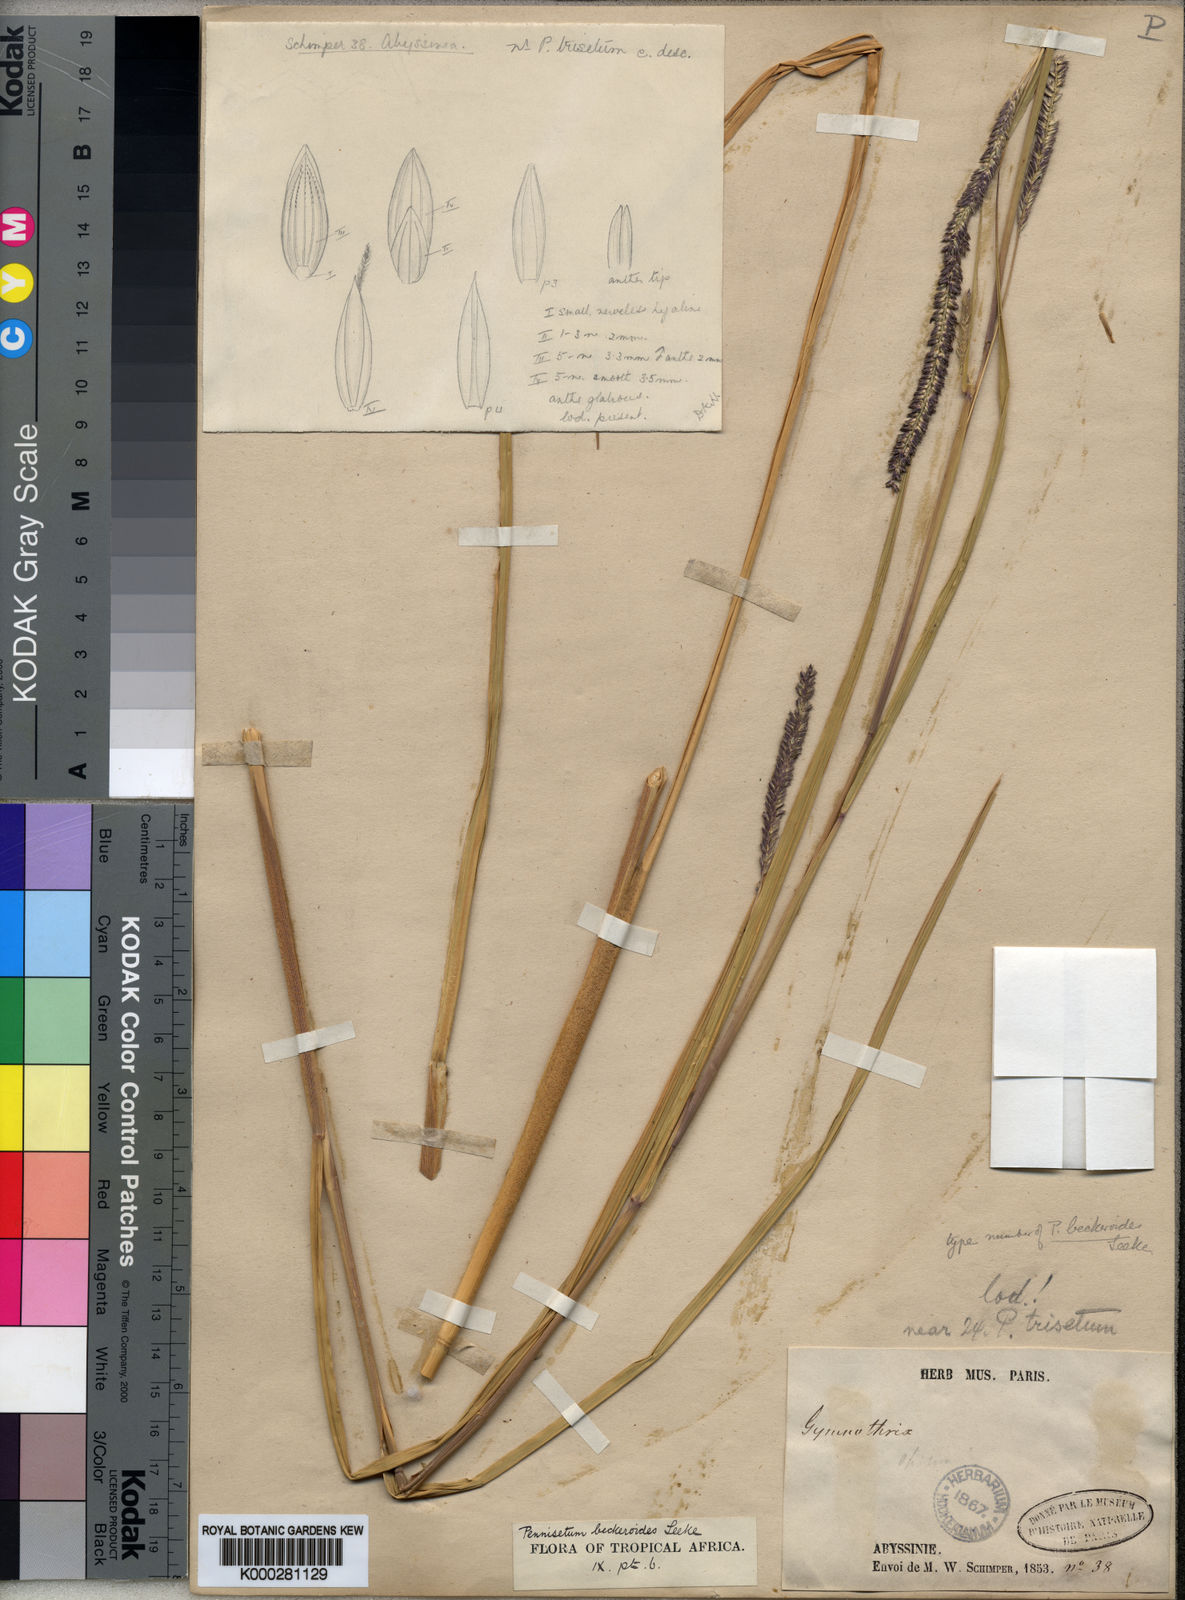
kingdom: Plantae
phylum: Tracheophyta
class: Liliopsida
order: Poales
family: Poaceae
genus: Cenchrus
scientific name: Cenchrus beckeroides
